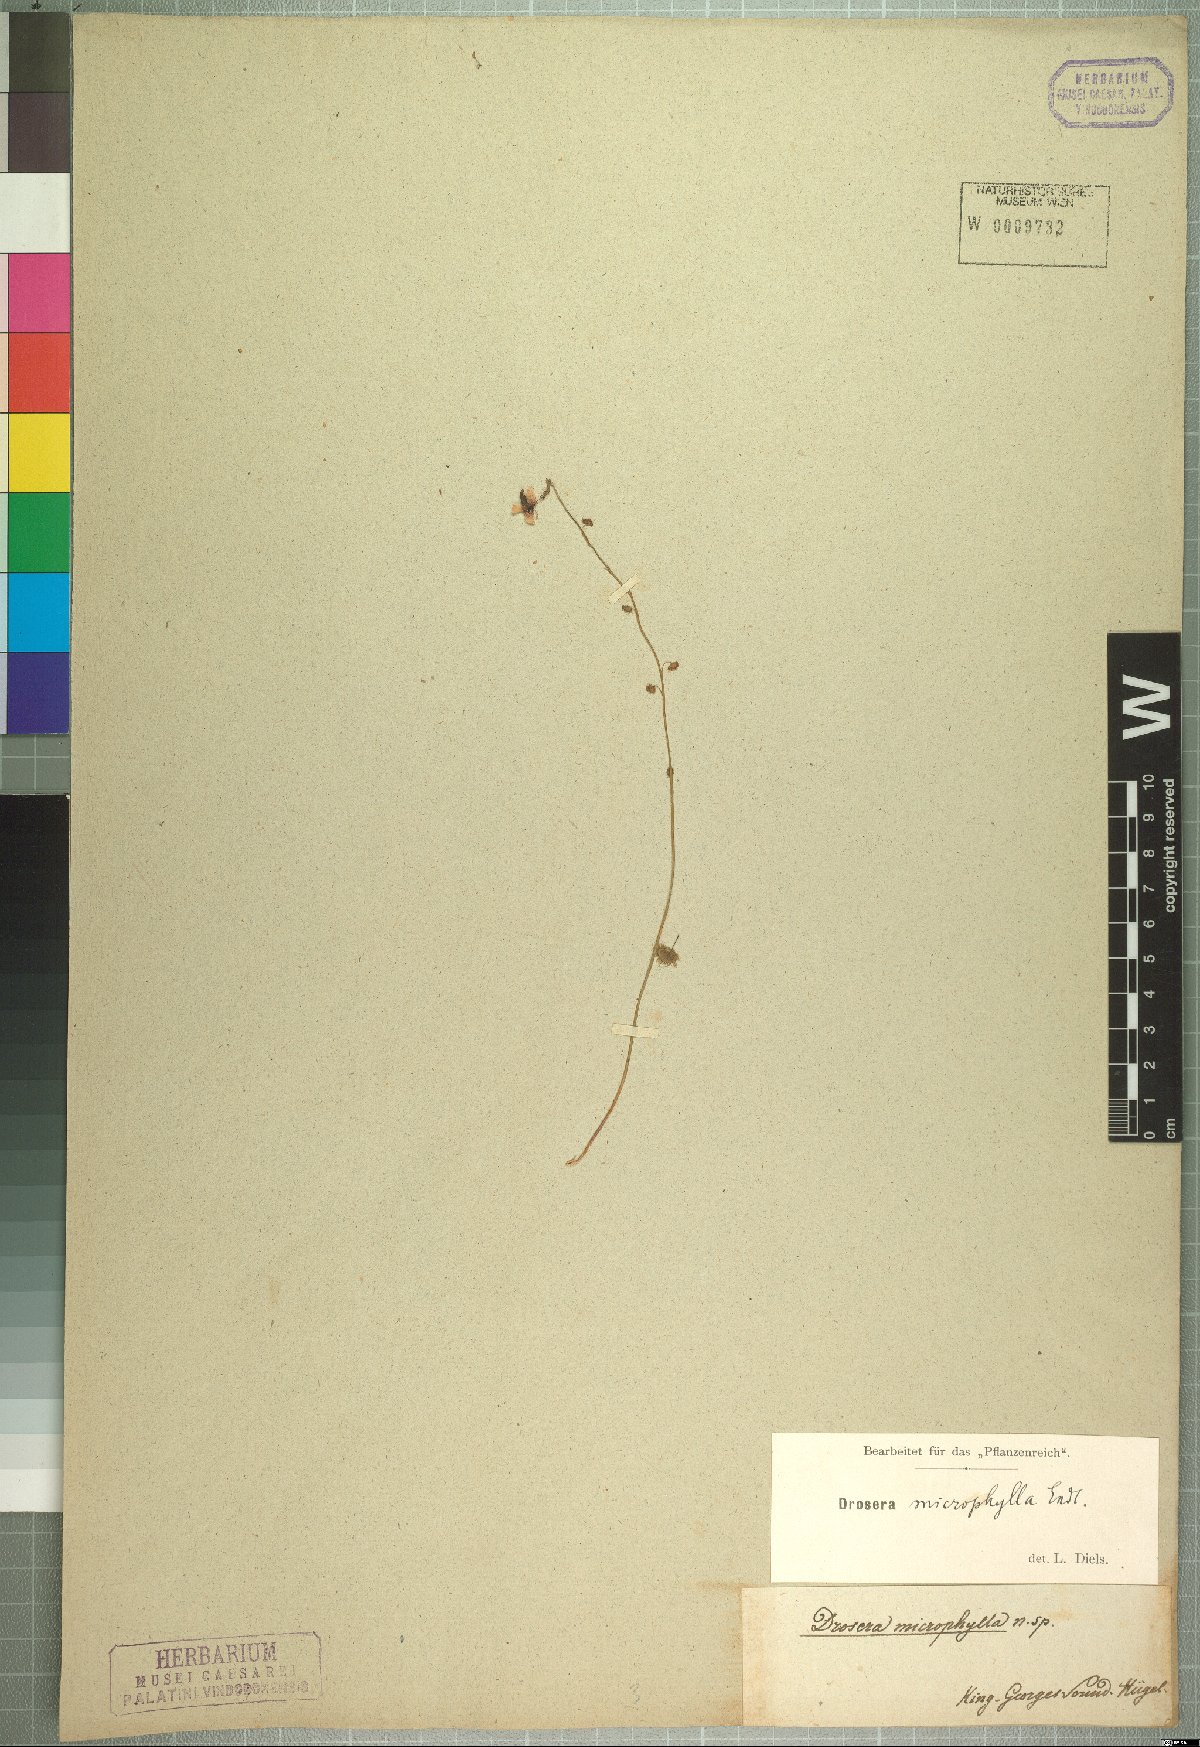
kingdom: Plantae
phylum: Tracheophyta
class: Magnoliopsida
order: Caryophyllales
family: Droseraceae
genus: Drosera
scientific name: Drosera microphylla
